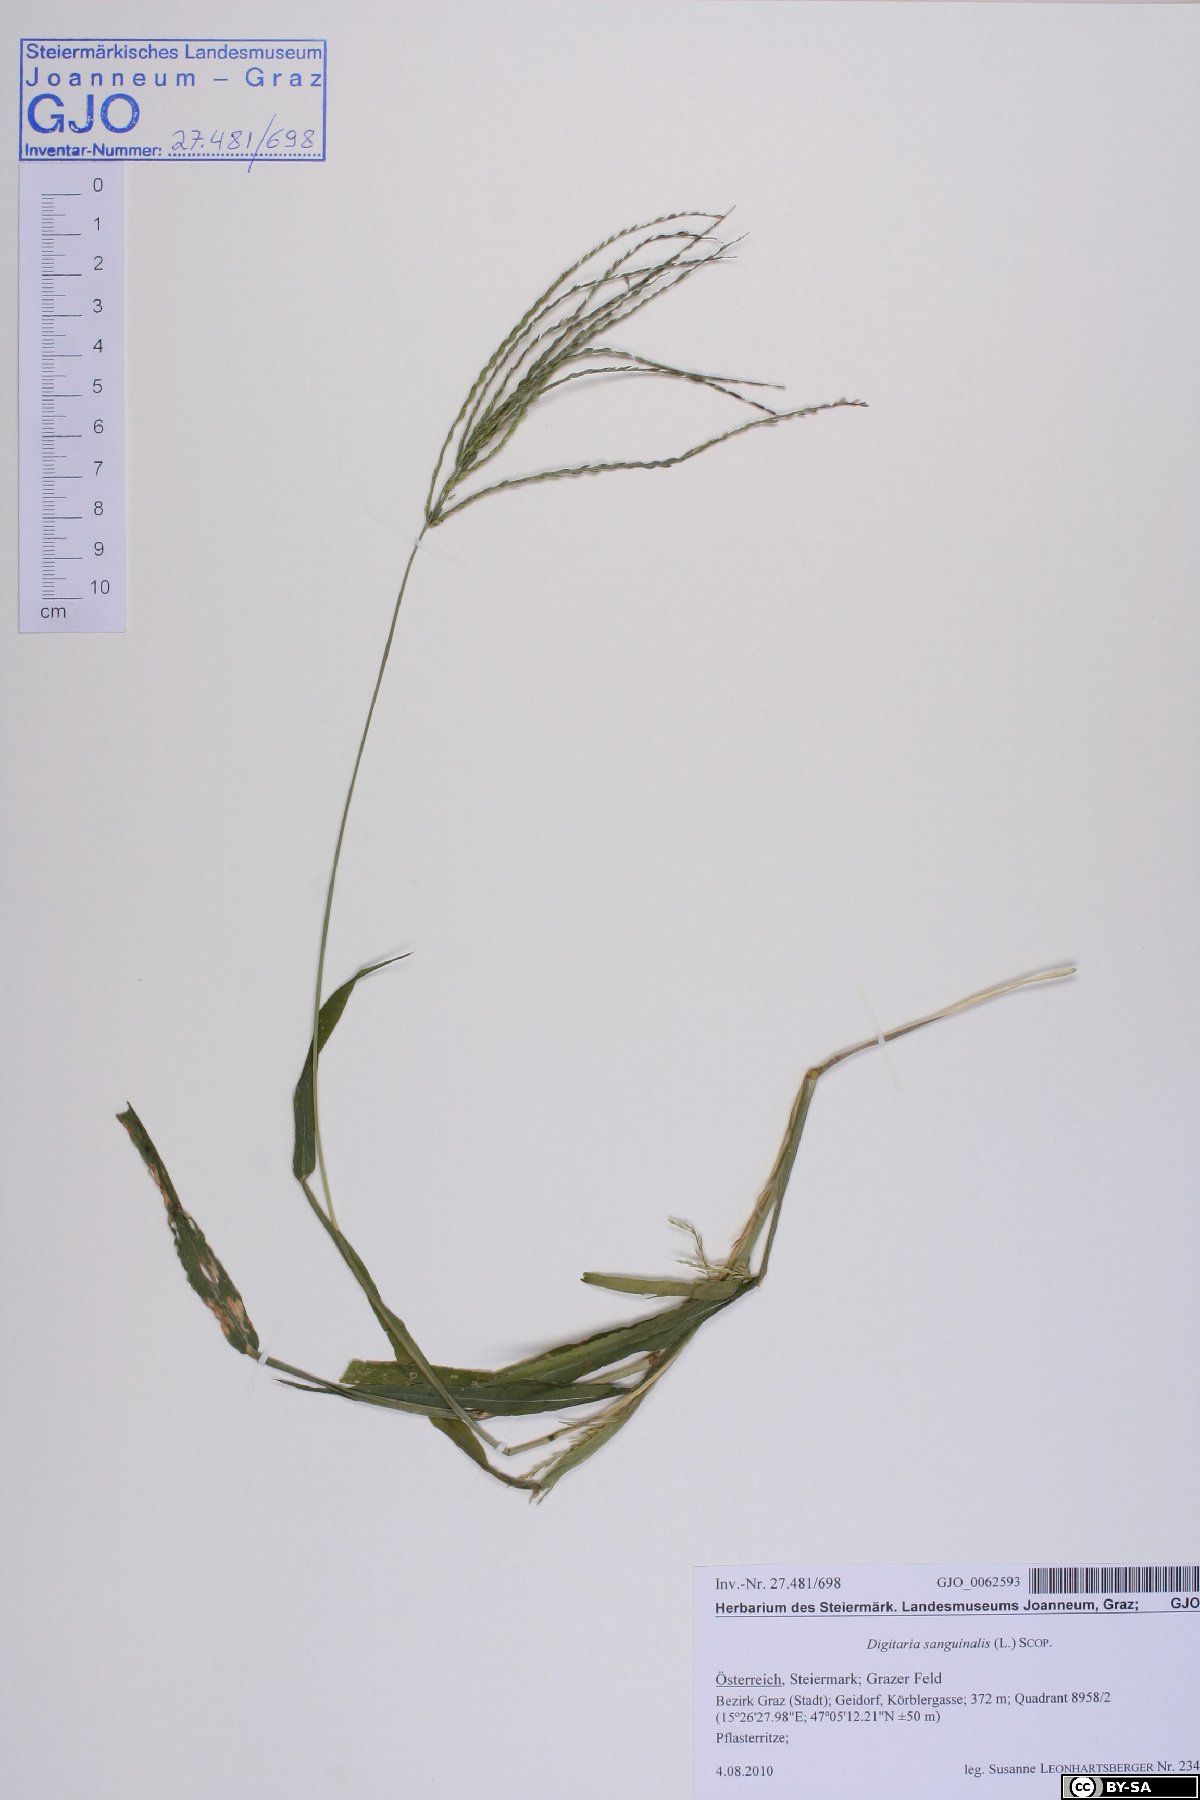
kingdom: Plantae
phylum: Tracheophyta
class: Liliopsida
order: Poales
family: Poaceae
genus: Digitaria
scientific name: Digitaria sanguinalis
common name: Hairy crabgrass
